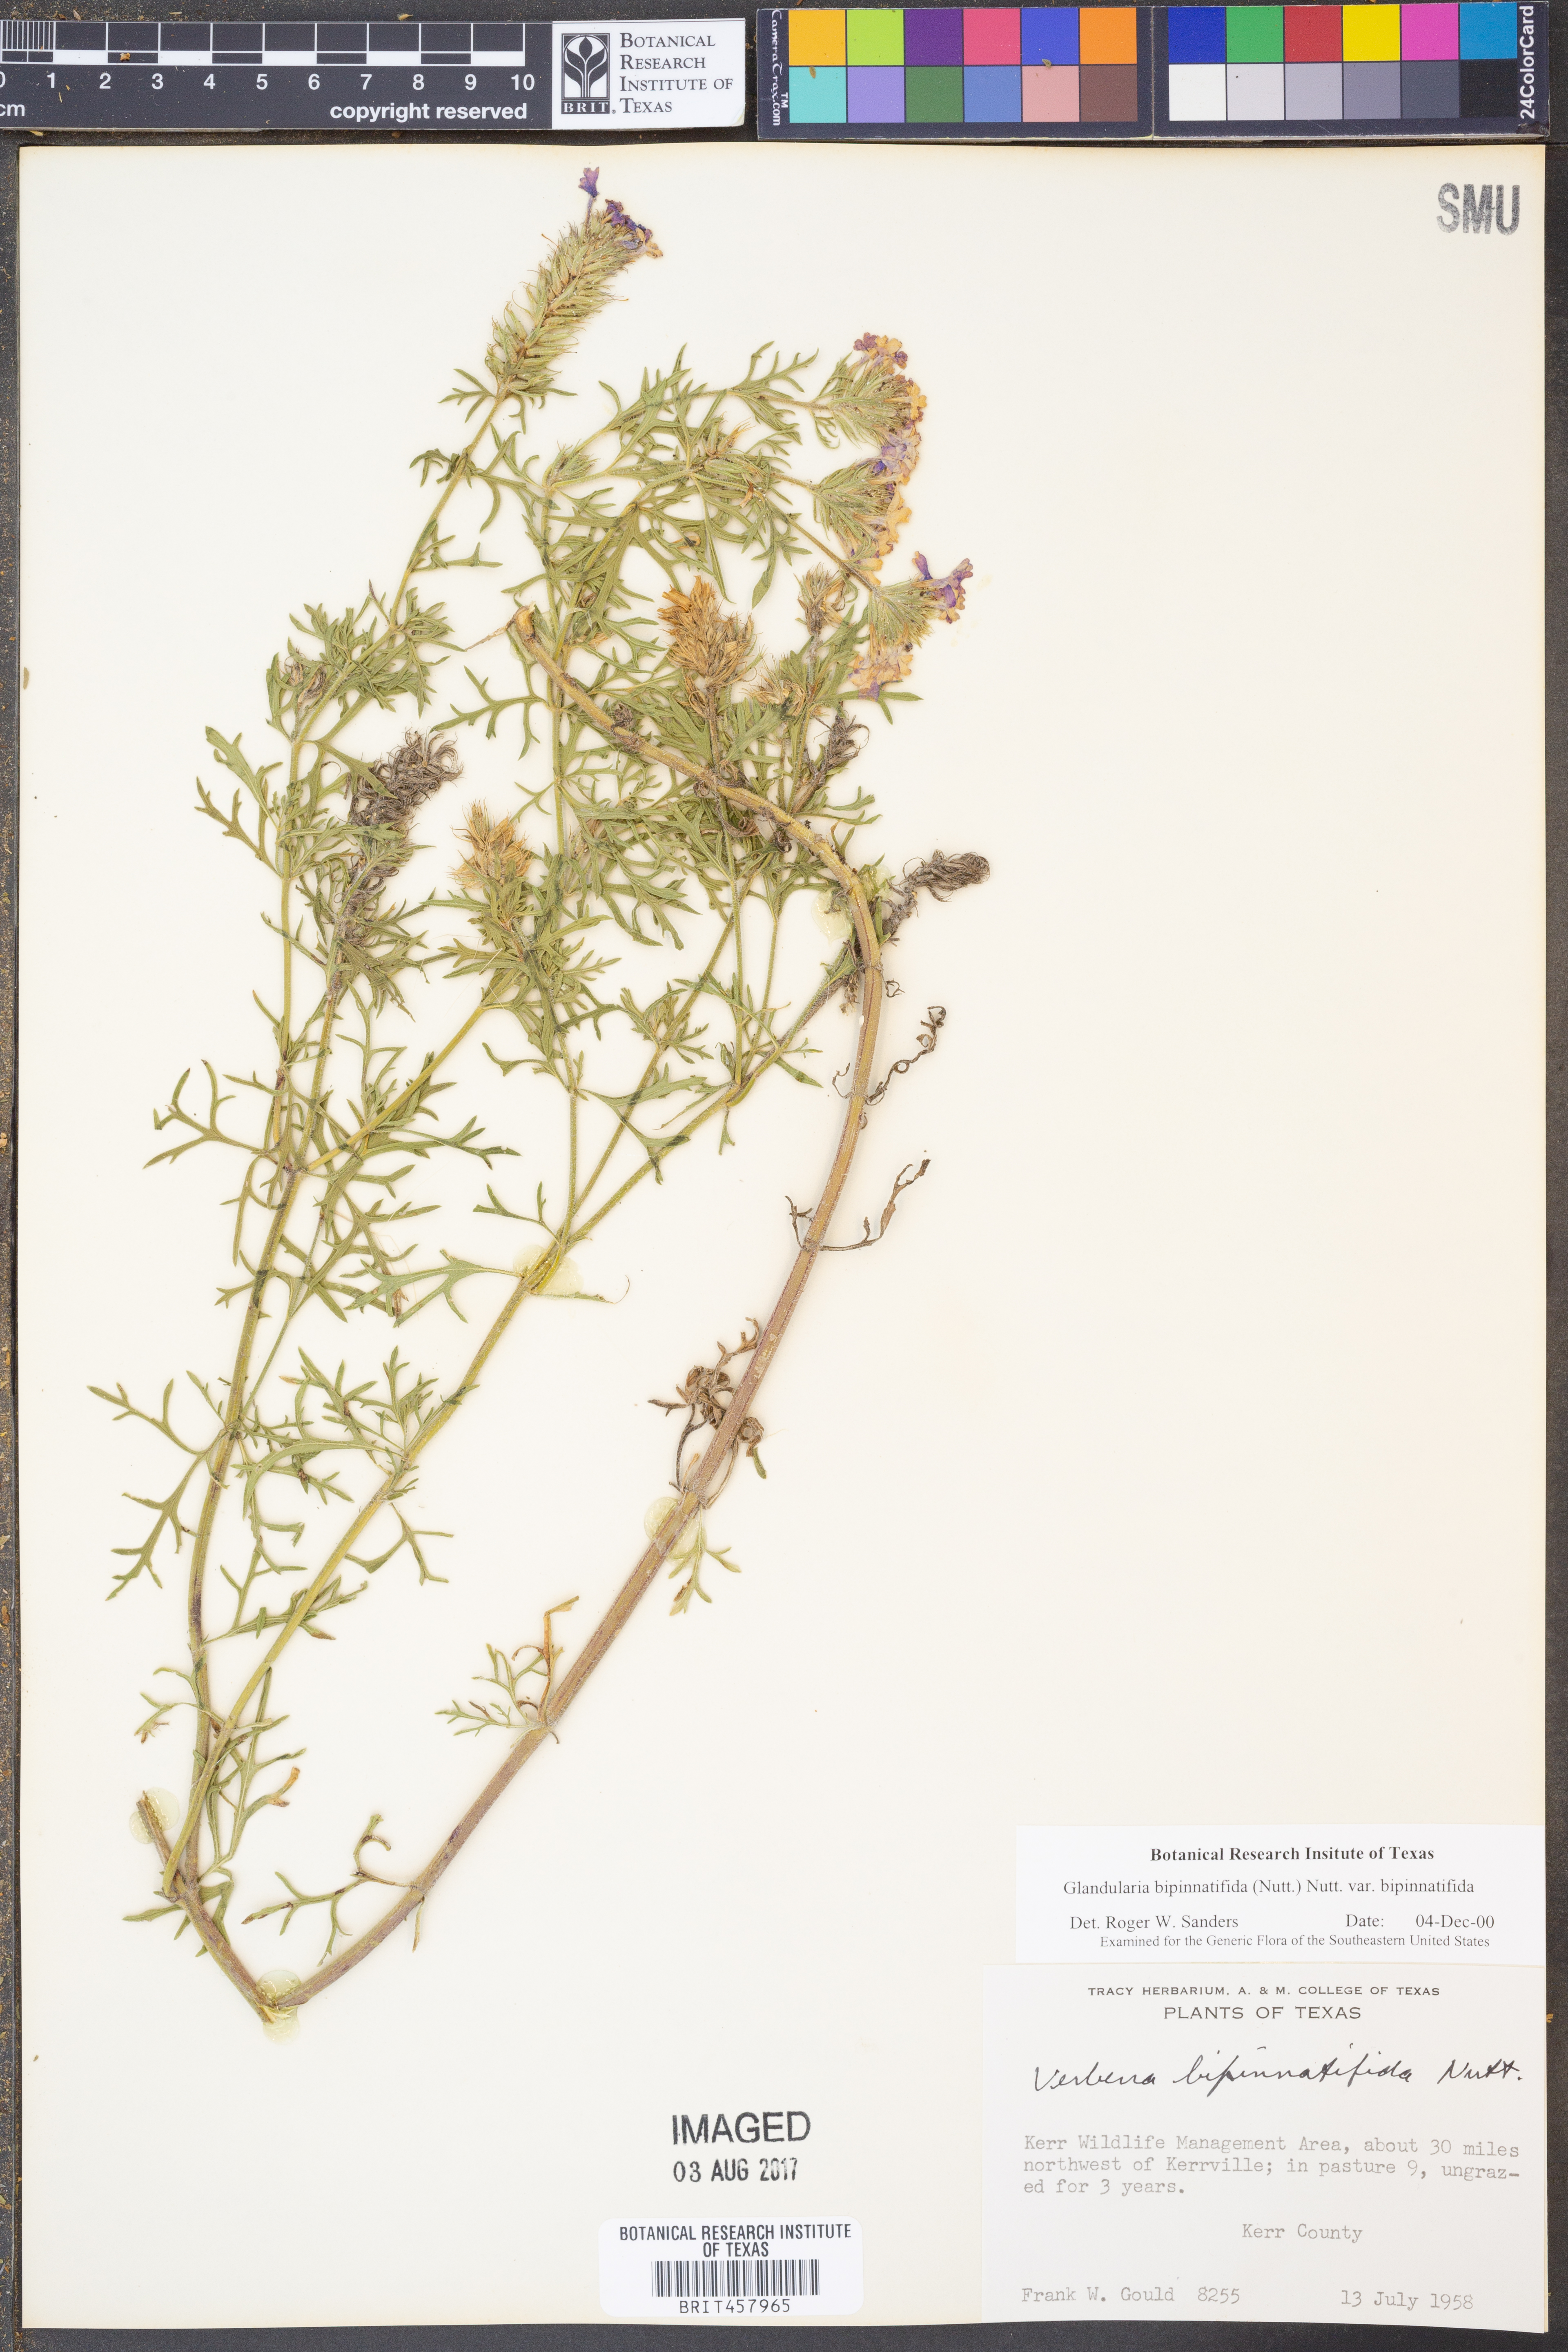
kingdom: Plantae
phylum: Tracheophyta
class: Magnoliopsida
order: Lamiales
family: Verbenaceae
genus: Verbena
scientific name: Verbena bipinnatifida
